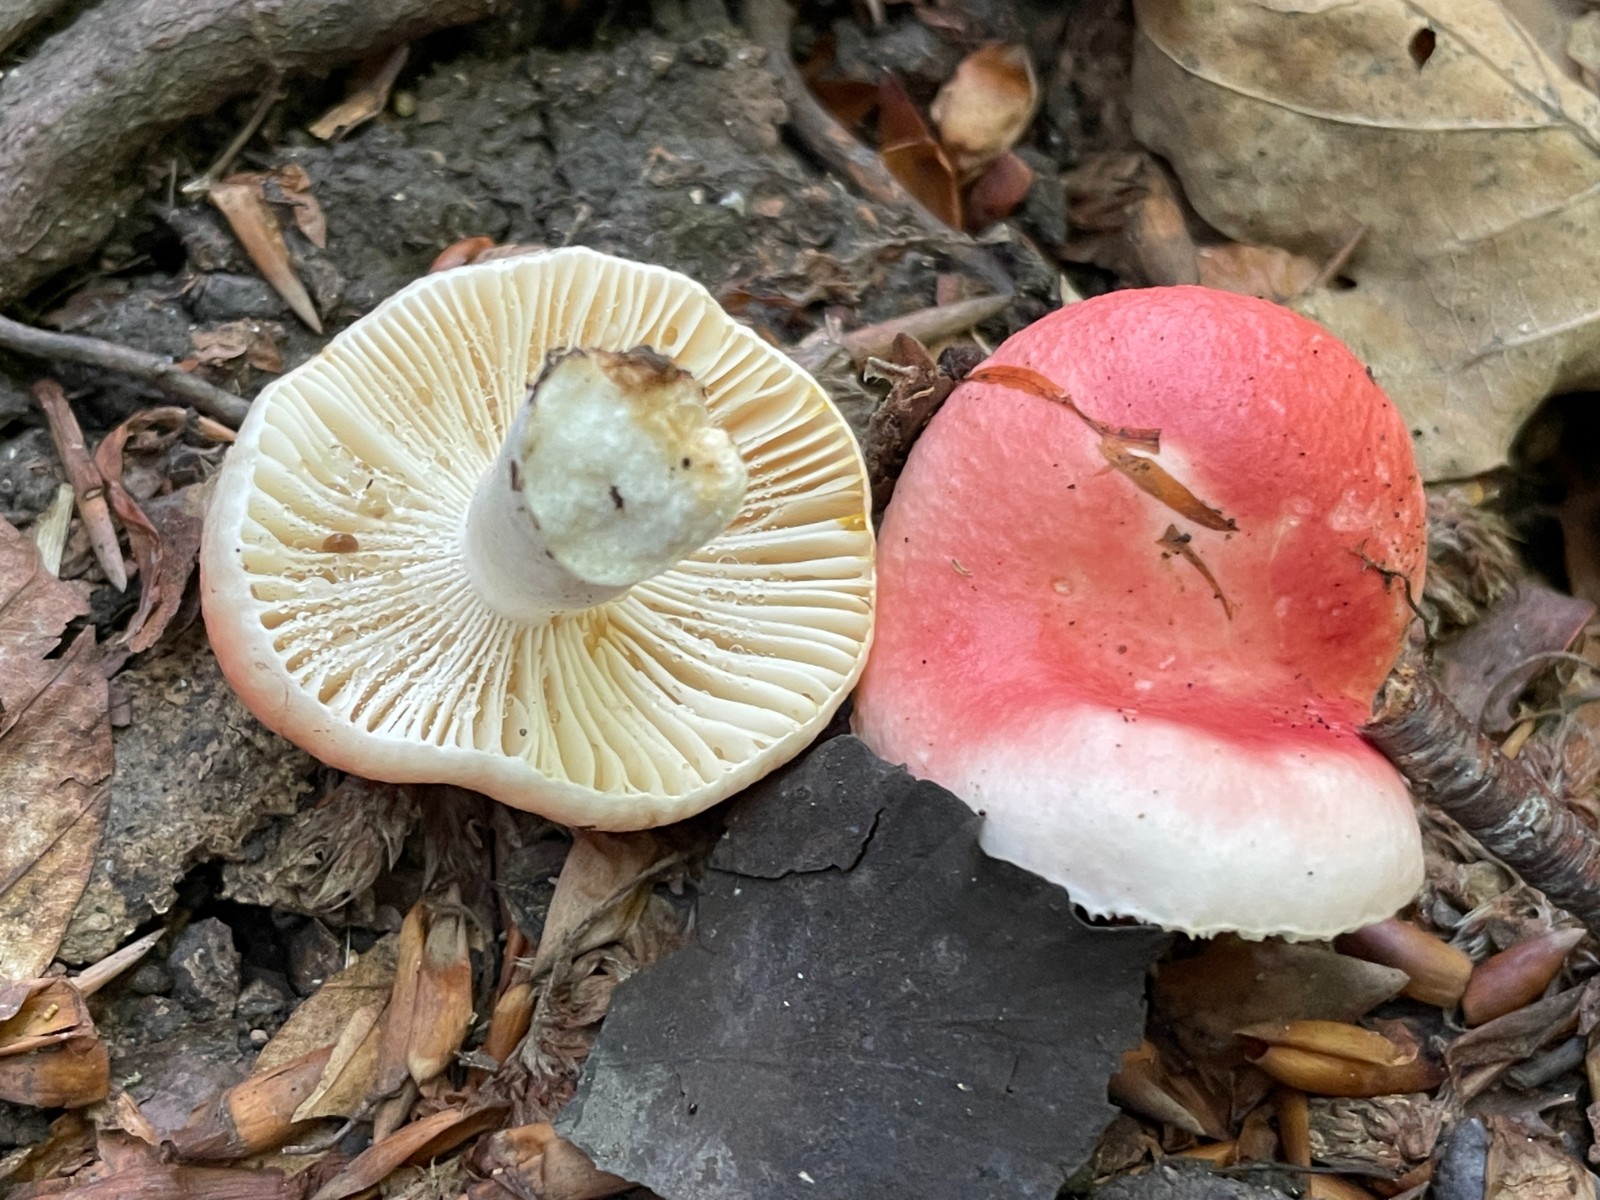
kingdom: Fungi
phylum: Basidiomycota
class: Agaricomycetes
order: Russulales
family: Russulaceae
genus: Russula
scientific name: Russula luteotacta
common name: gulplettet gift-skørhat
